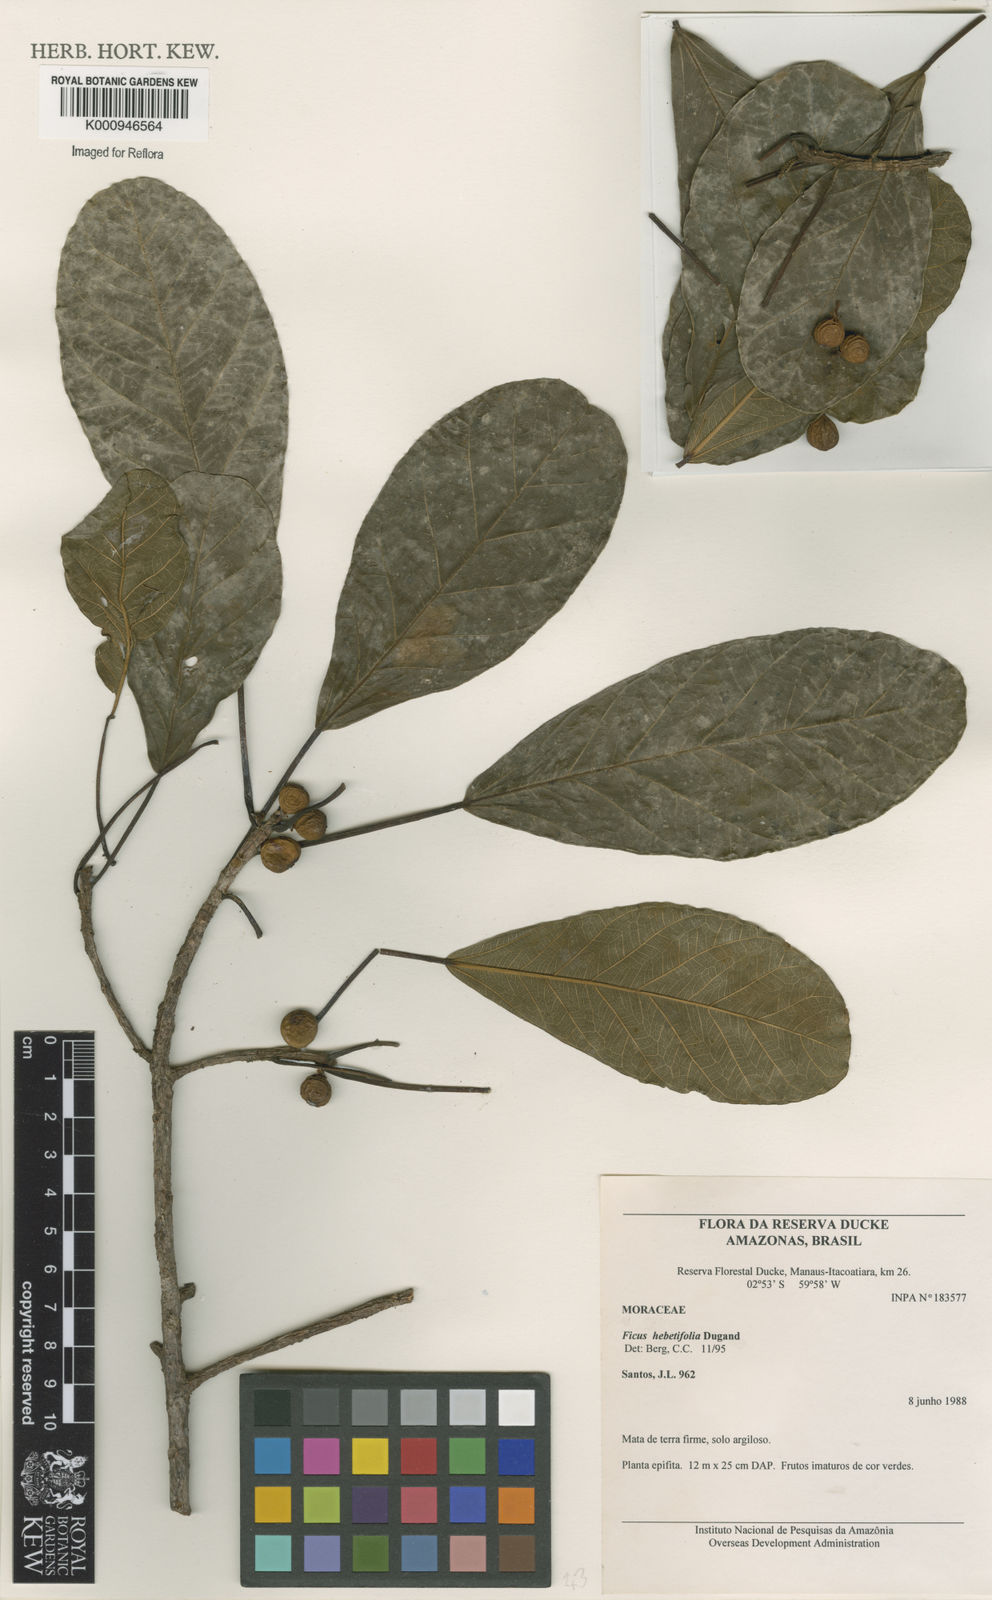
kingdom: Plantae
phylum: Tracheophyta
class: Magnoliopsida
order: Rosales
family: Moraceae
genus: Ficus
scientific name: Ficus paludica
